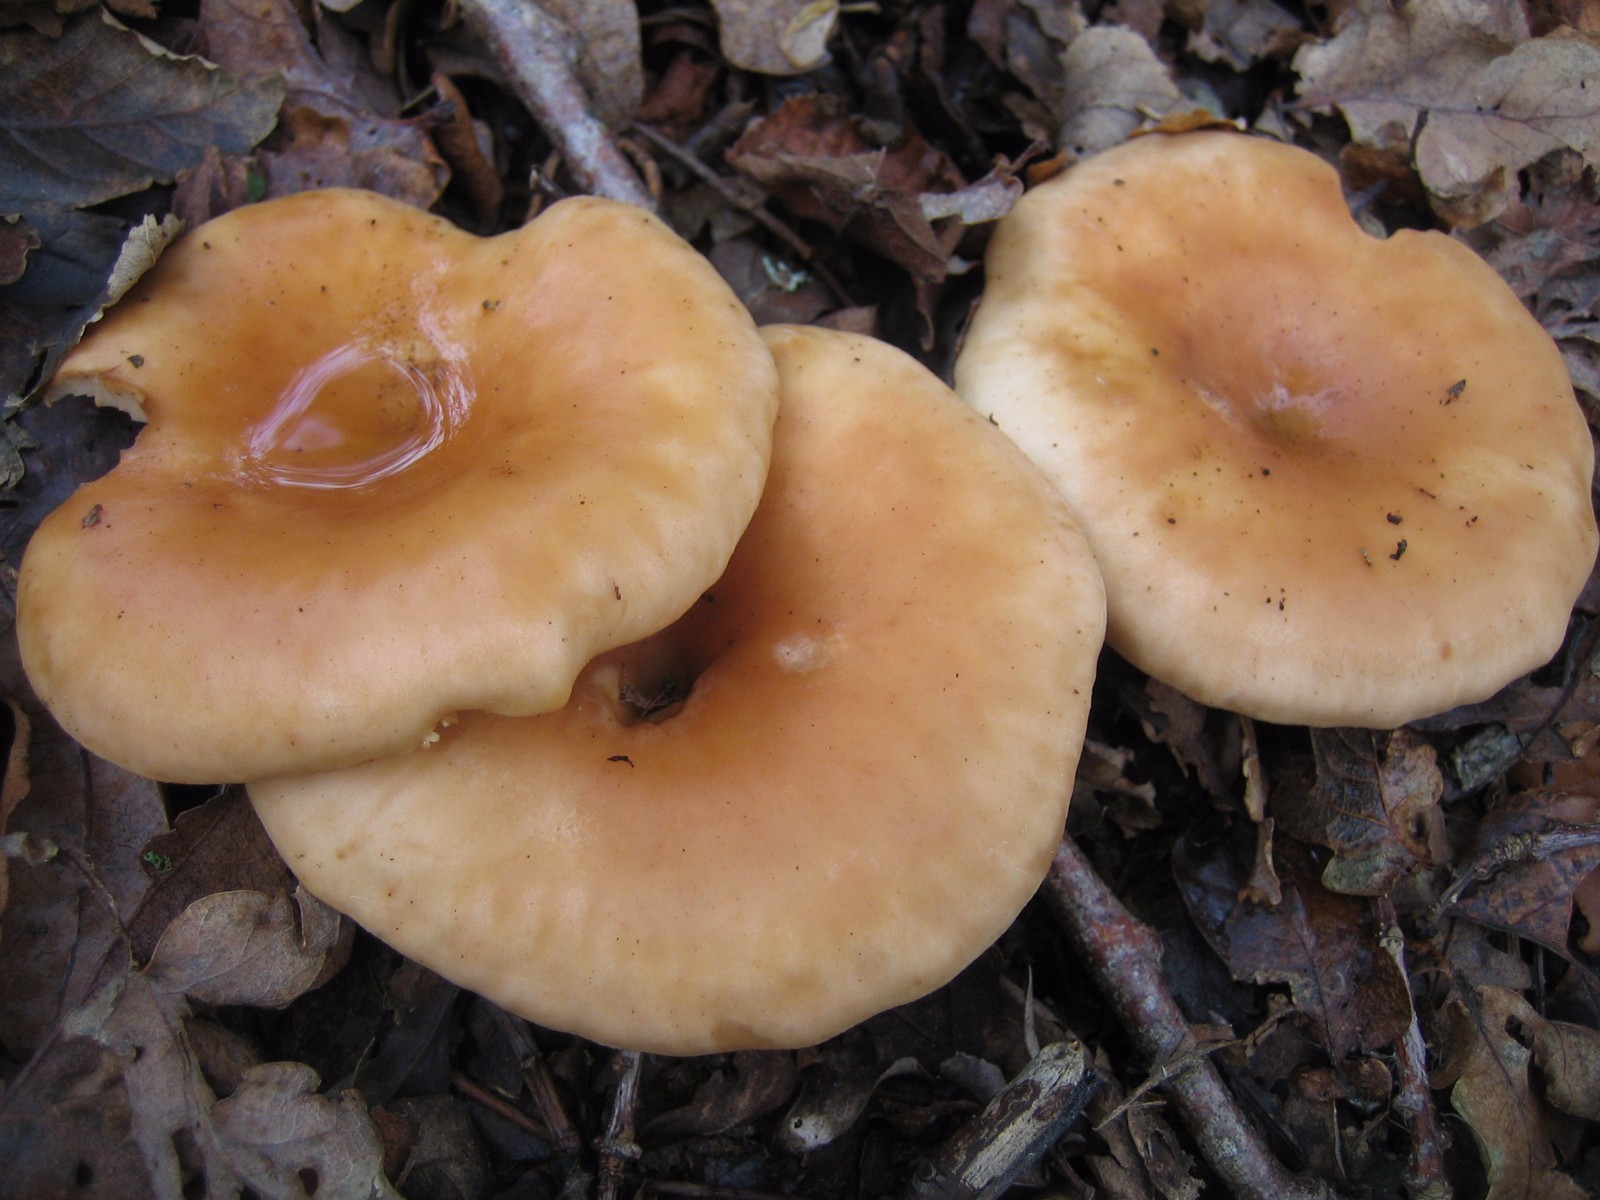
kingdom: Fungi
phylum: Basidiomycota
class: Agaricomycetes
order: Agaricales
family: Tricholomataceae
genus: Paralepista
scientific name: Paralepista flaccida
